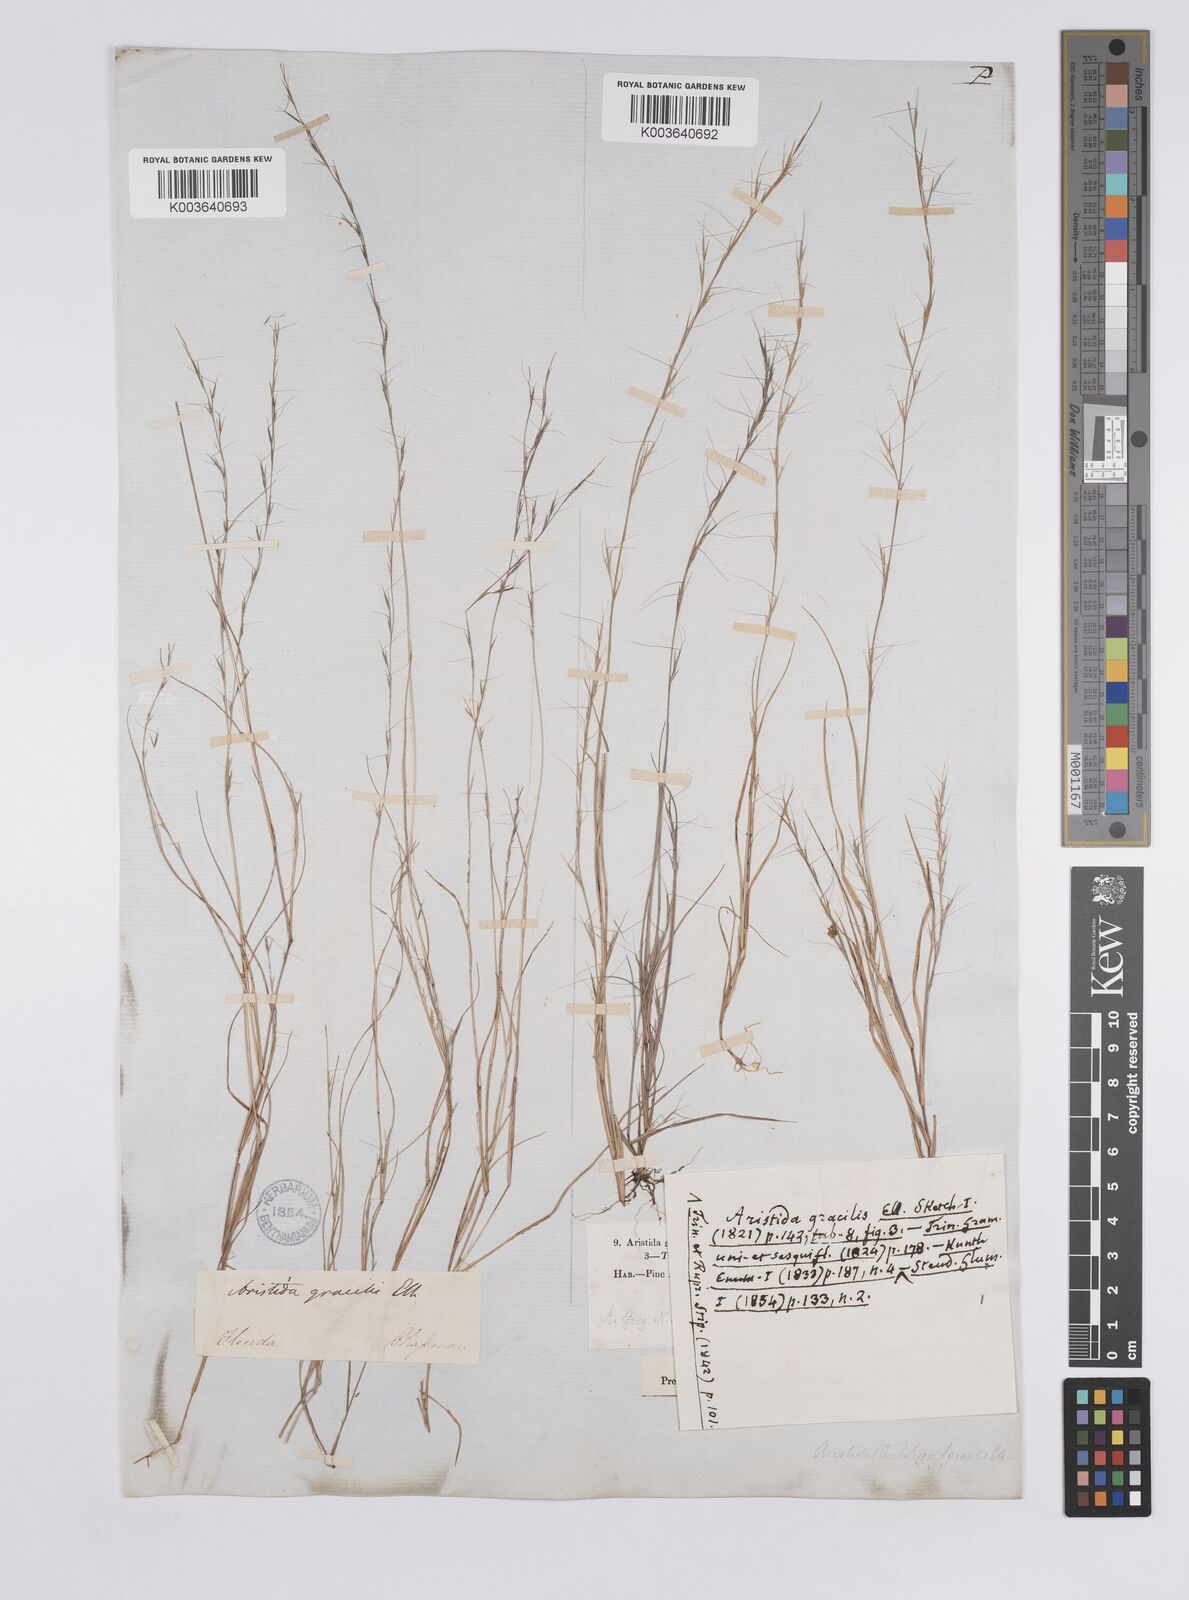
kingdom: Plantae
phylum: Tracheophyta
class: Liliopsida
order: Poales
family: Poaceae
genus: Aristida
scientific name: Aristida longespica
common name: Long-spiked triple-awned grass
